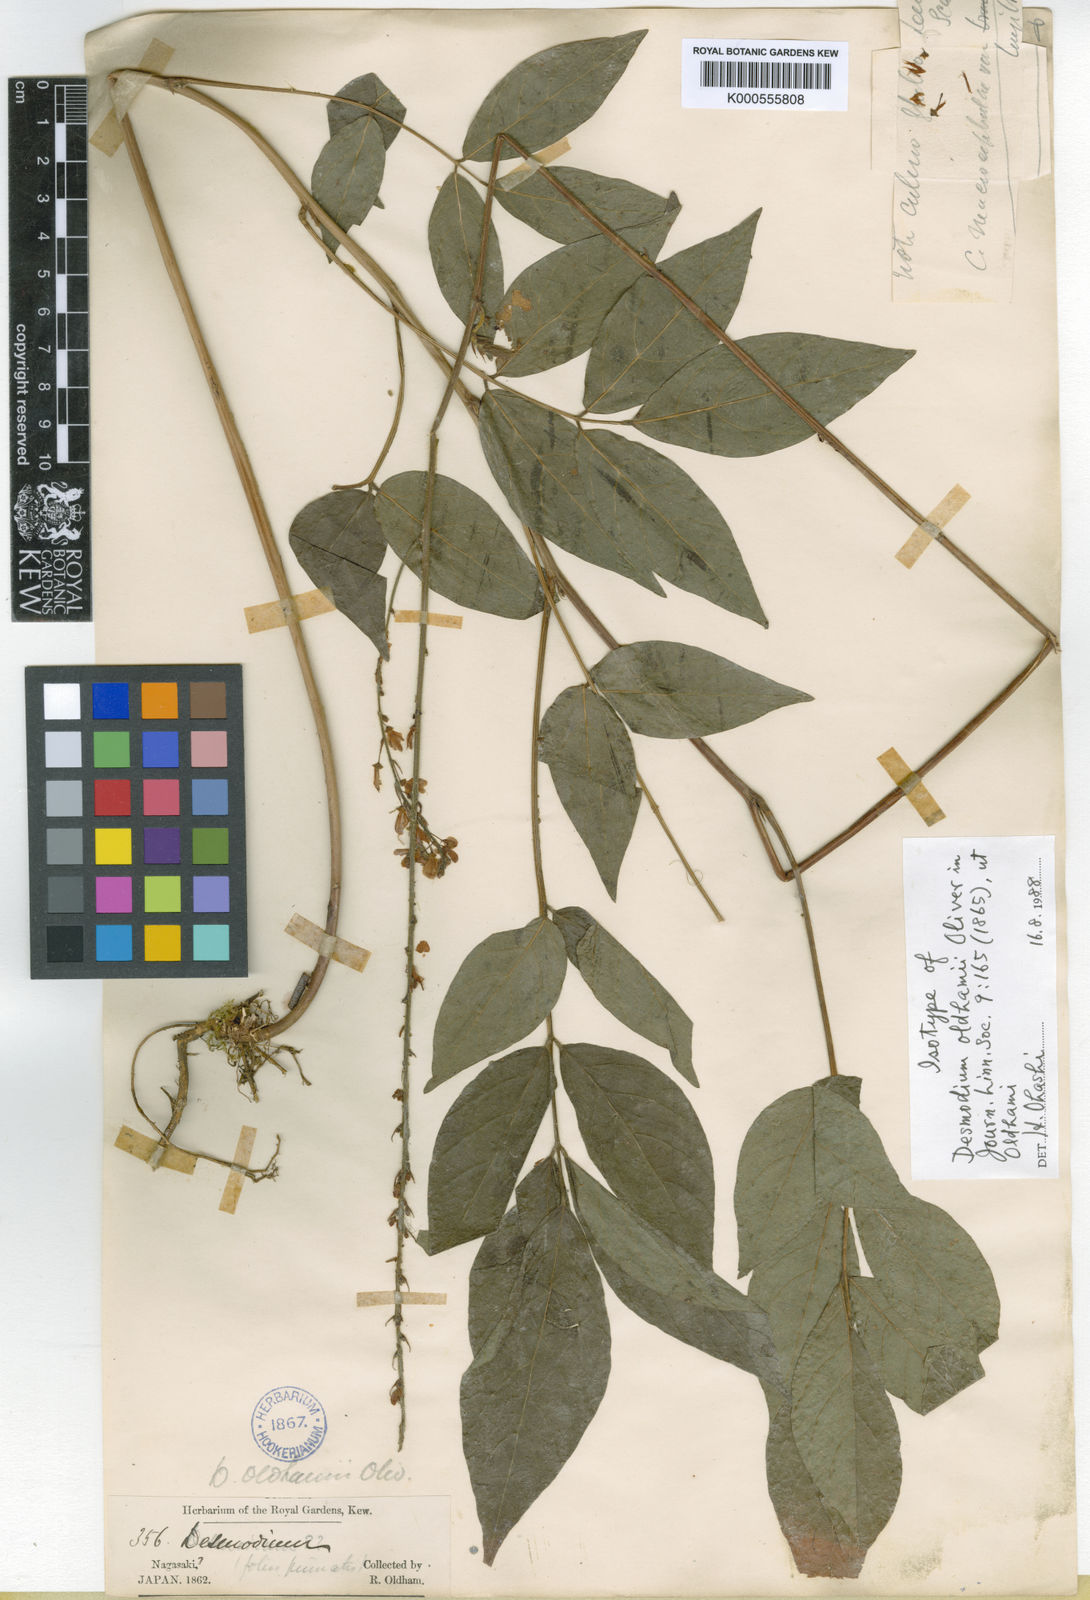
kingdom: Plantae
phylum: Tracheophyta
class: Magnoliopsida
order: Fabales
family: Fabaceae
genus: Hylodesmum
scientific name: Hylodesmum oldhamii
